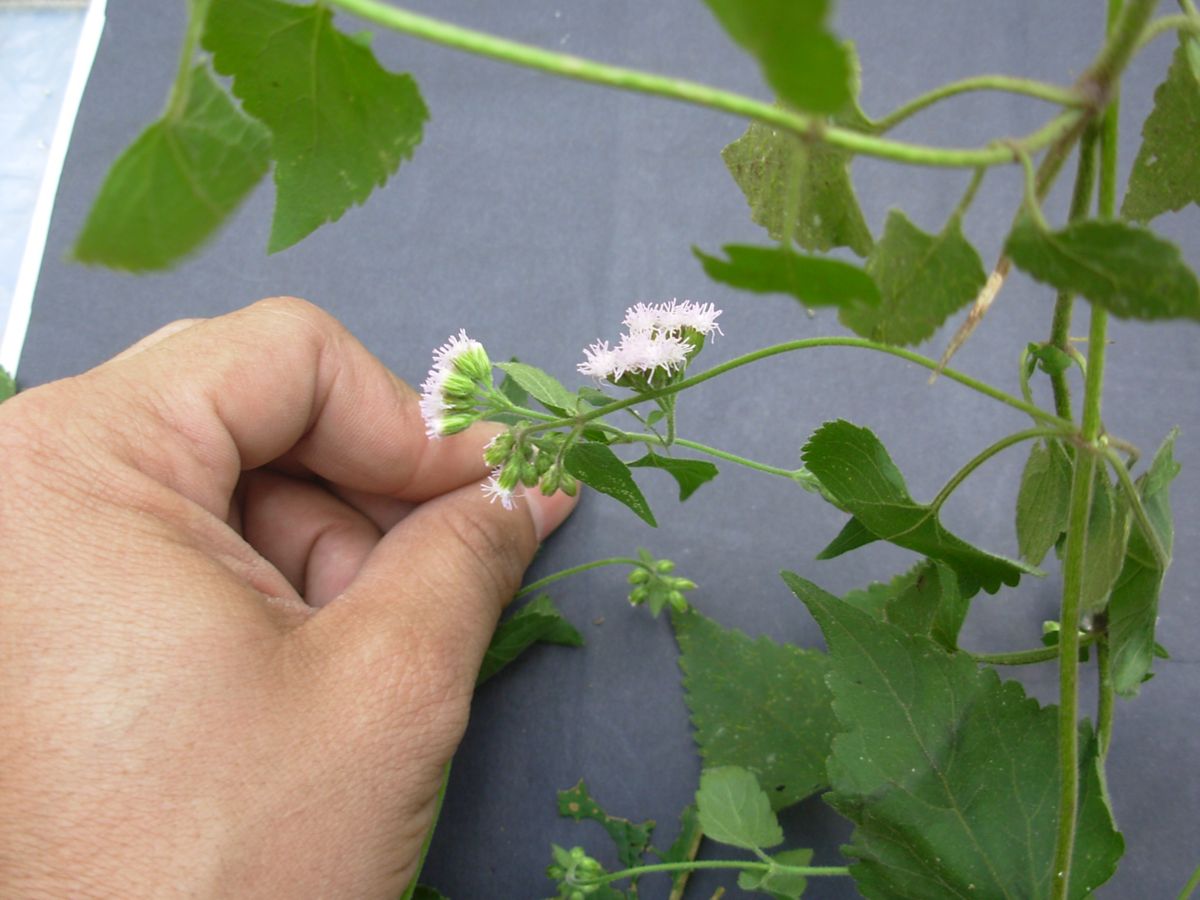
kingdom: Plantae
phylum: Tracheophyta
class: Magnoliopsida
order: Asterales
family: Asteraceae
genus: Fleischmannia
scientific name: Fleischmannia pycnocephala
